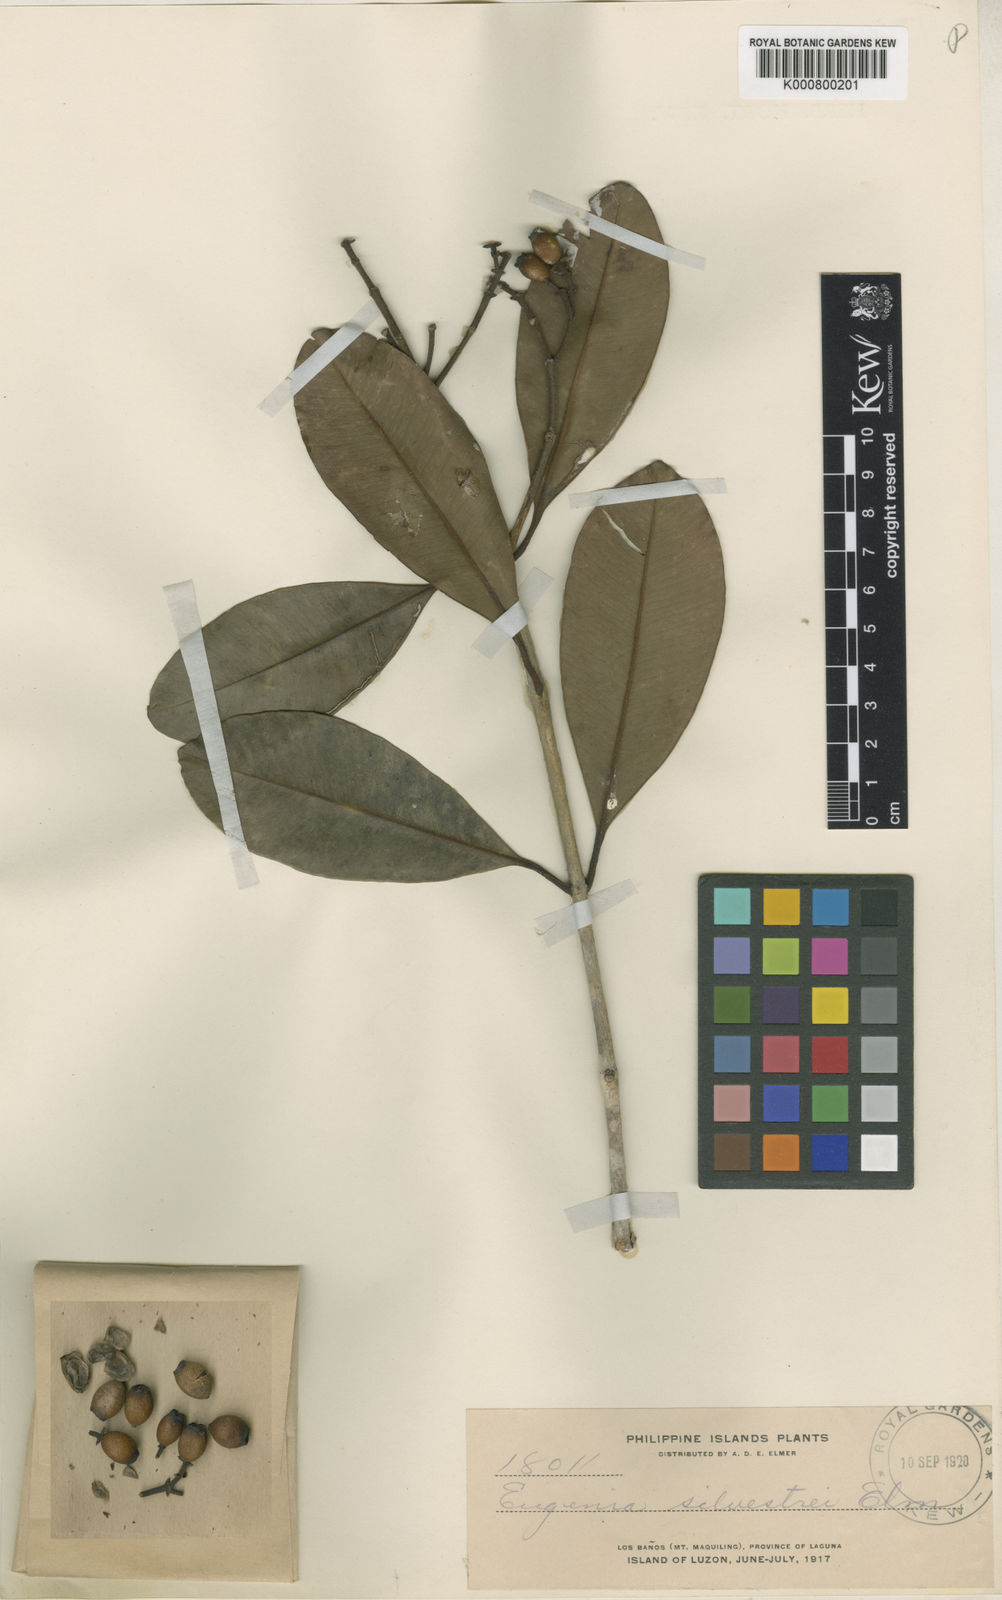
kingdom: Plantae
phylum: Tracheophyta
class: Magnoliopsida
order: Myrtales
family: Myrtaceae
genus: Syzygium
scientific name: Syzygium densinervium
